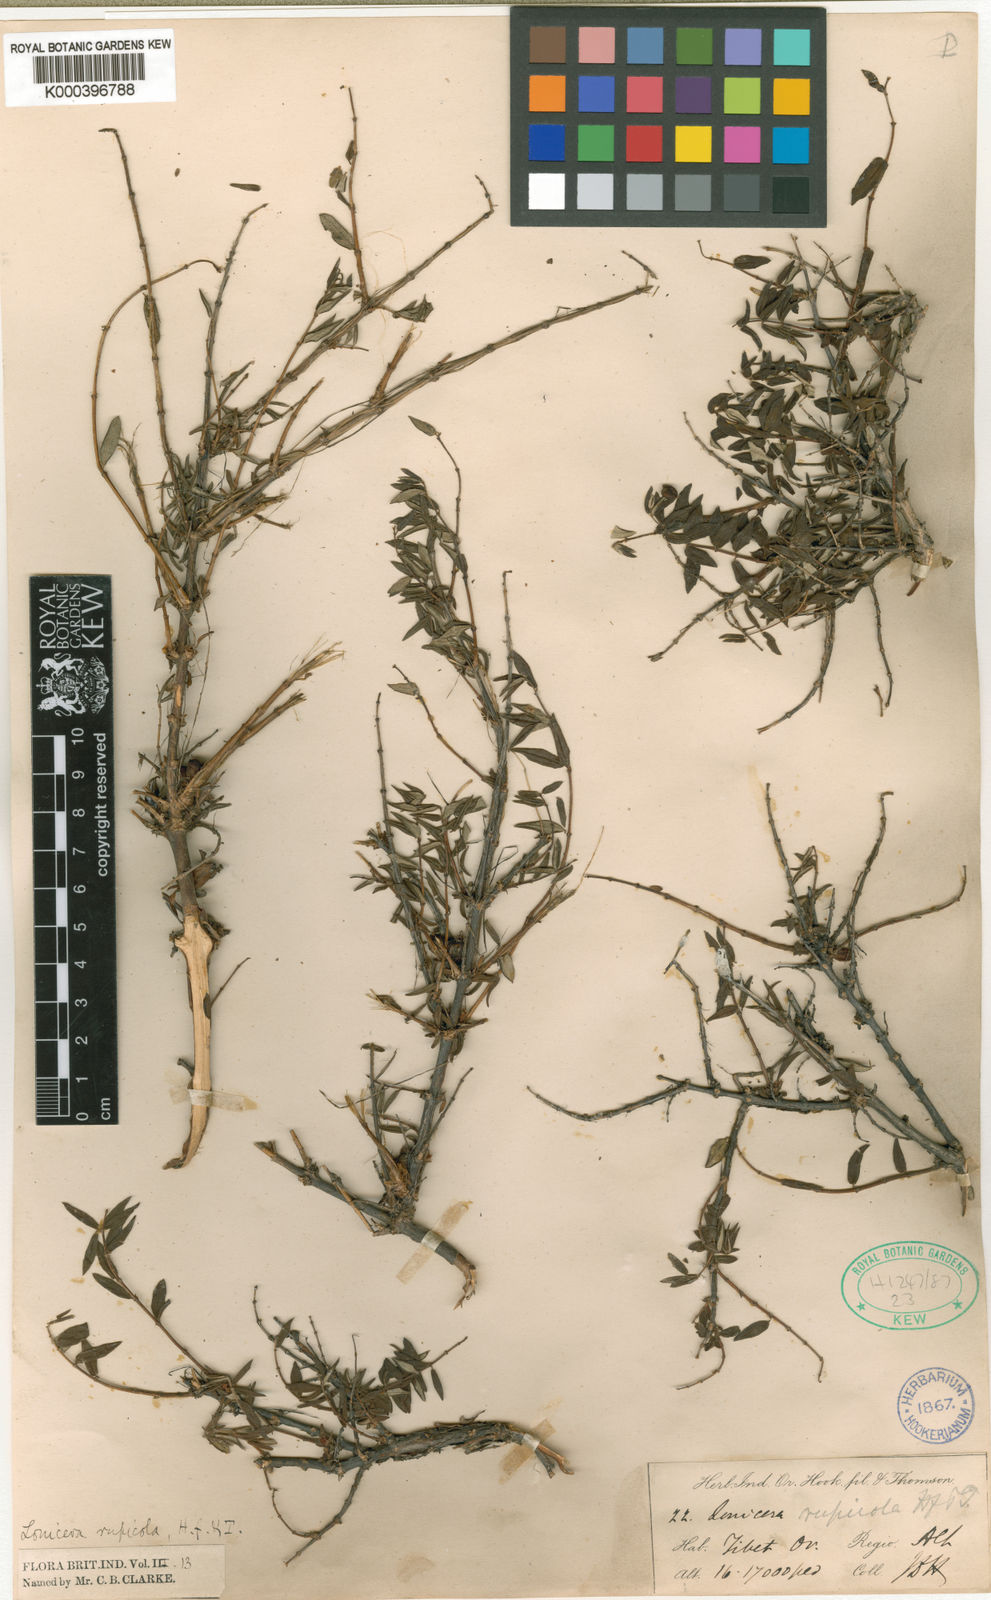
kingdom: Plantae
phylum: Tracheophyta
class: Magnoliopsida
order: Dipsacales
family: Caprifoliaceae
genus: Lonicera
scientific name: Lonicera rupicola
